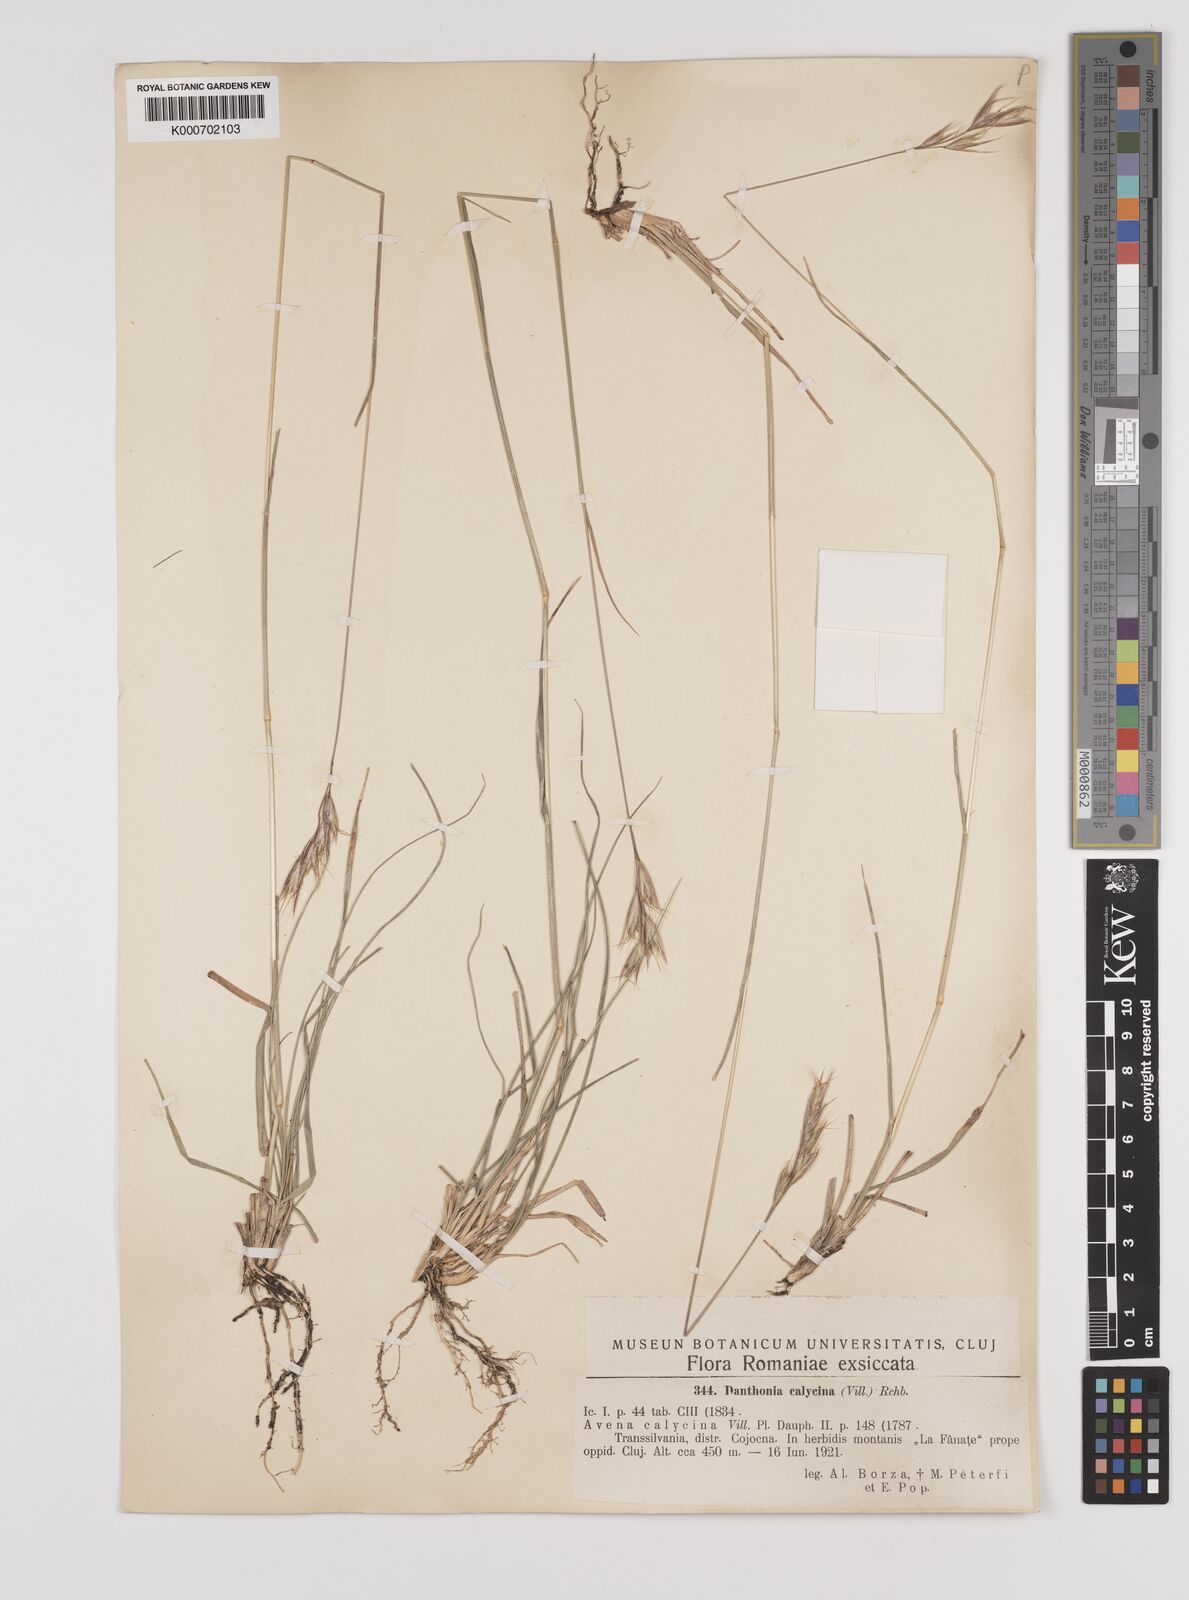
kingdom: Plantae
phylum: Tracheophyta
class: Liliopsida
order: Poales
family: Poaceae
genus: Danthonia
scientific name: Danthonia alpina
